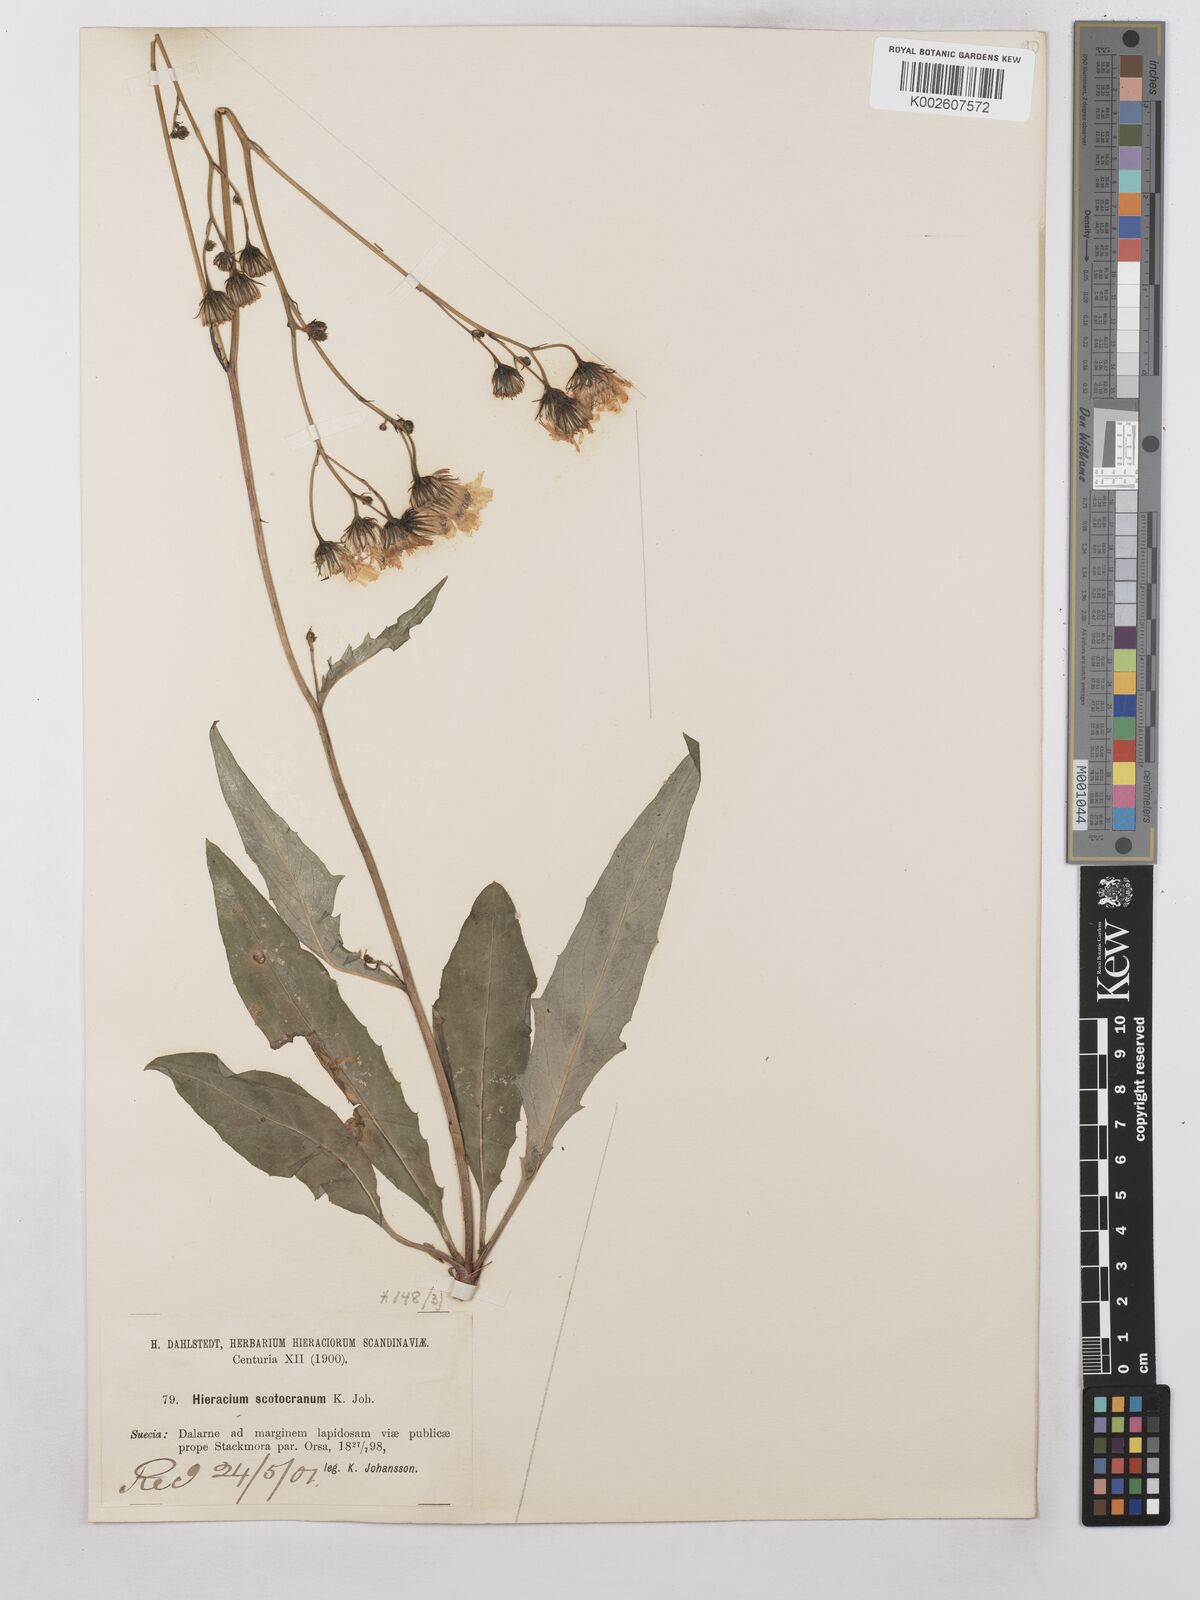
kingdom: Plantae
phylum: Tracheophyta
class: Magnoliopsida
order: Asterales
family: Asteraceae
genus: Hieracium
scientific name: Hieracium subramosum
